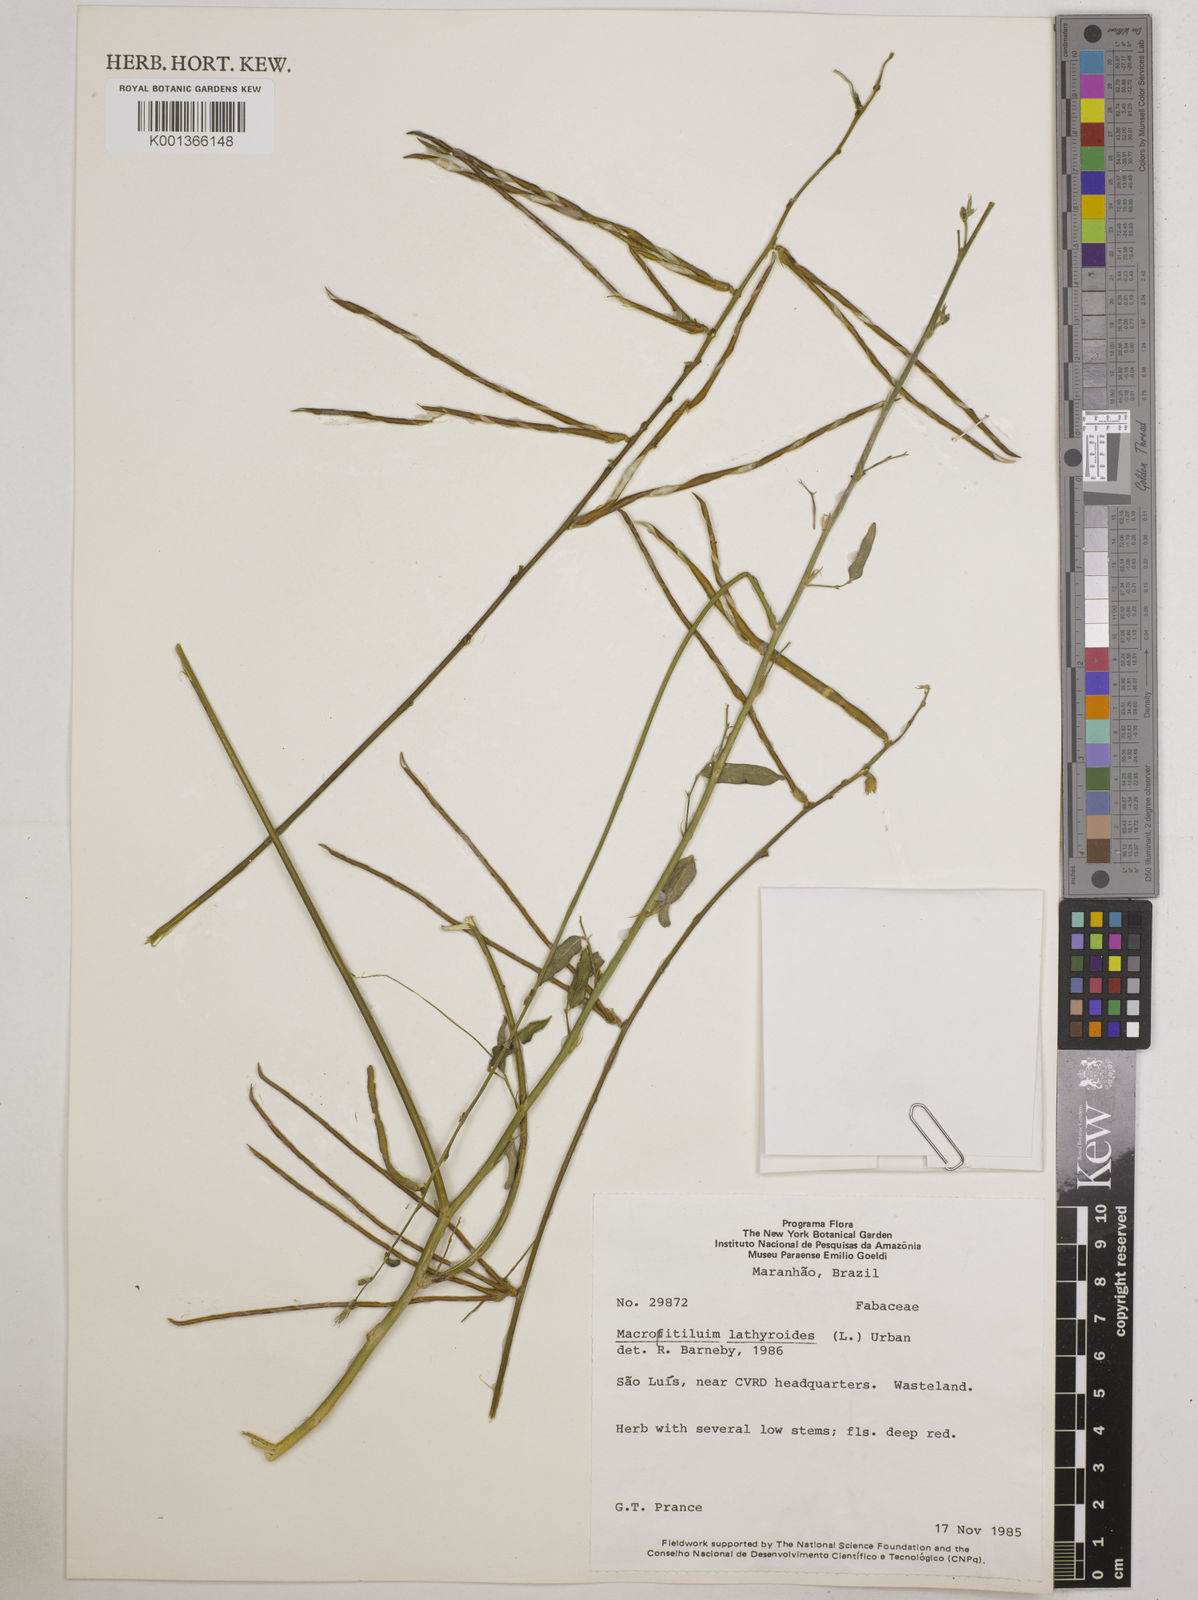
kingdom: Plantae
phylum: Tracheophyta
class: Magnoliopsida
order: Fabales
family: Fabaceae
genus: Macroptilium
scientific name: Macroptilium lathyroides
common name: Wild bushbean
